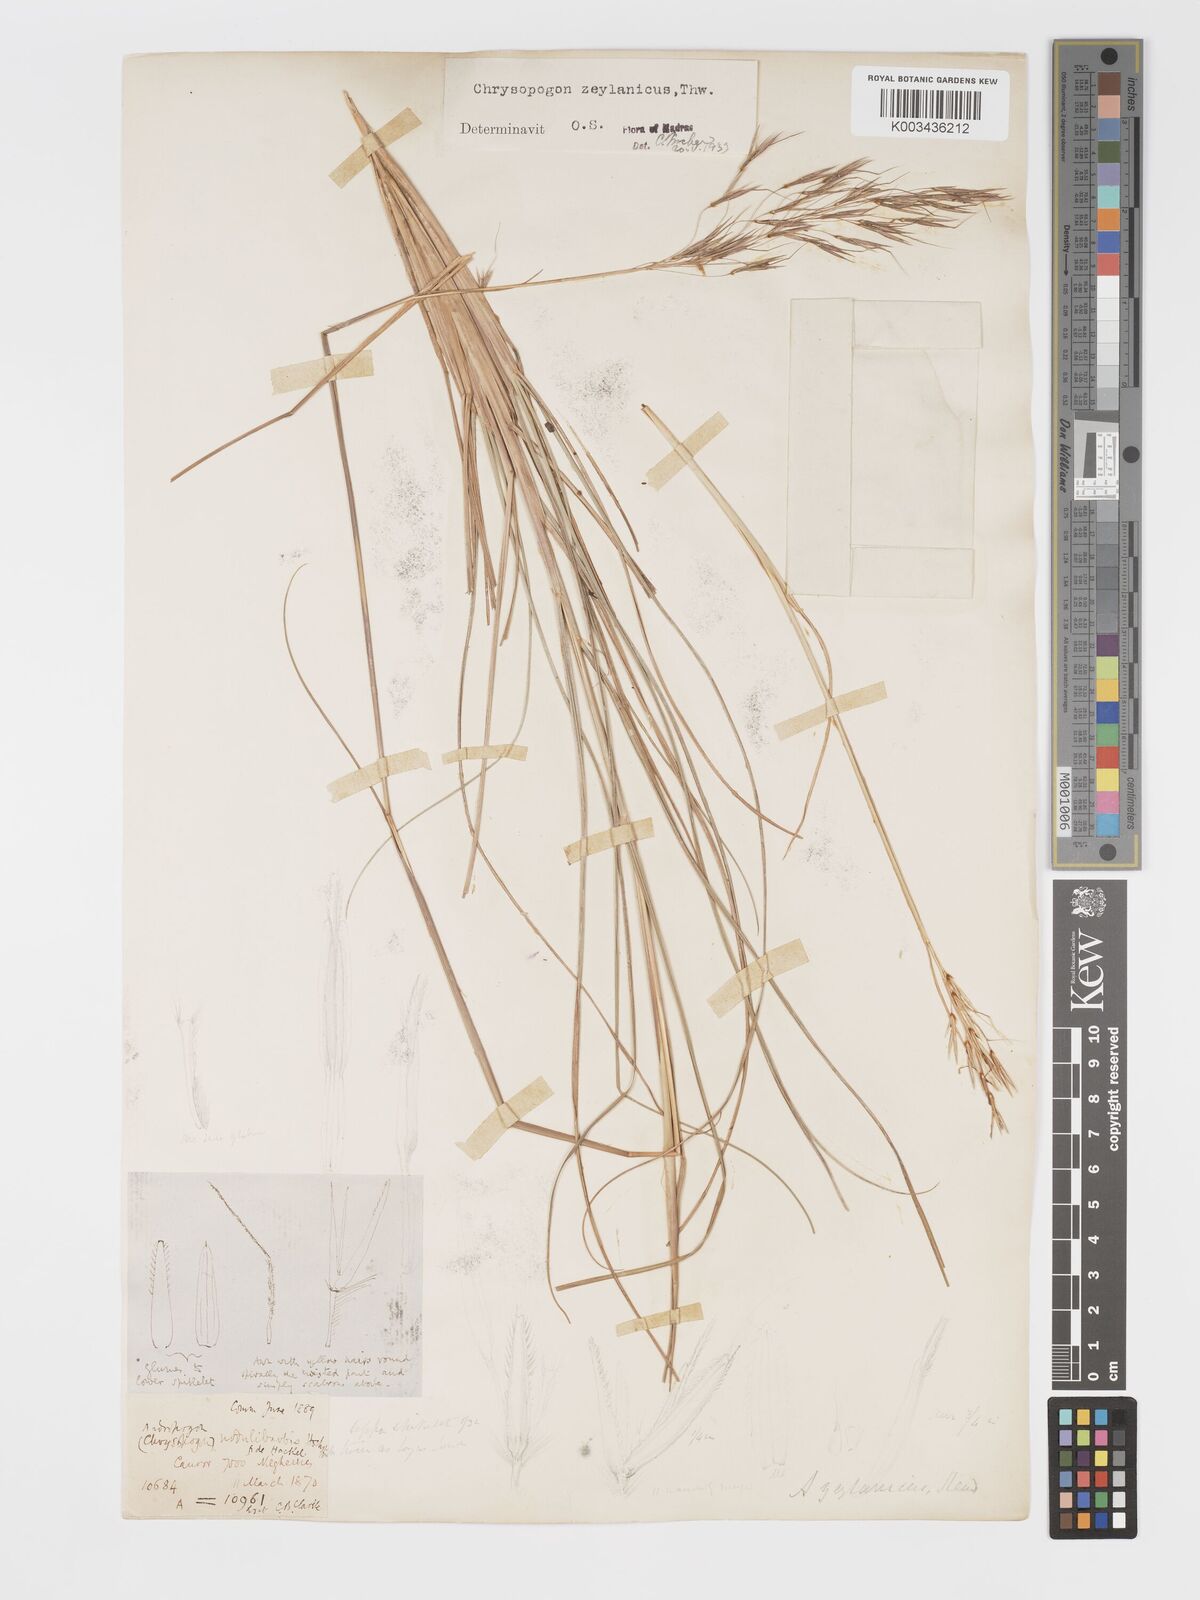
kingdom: Plantae
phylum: Tracheophyta
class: Liliopsida
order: Poales
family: Poaceae
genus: Chrysopogon
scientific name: Chrysopogon nodulibarbis
